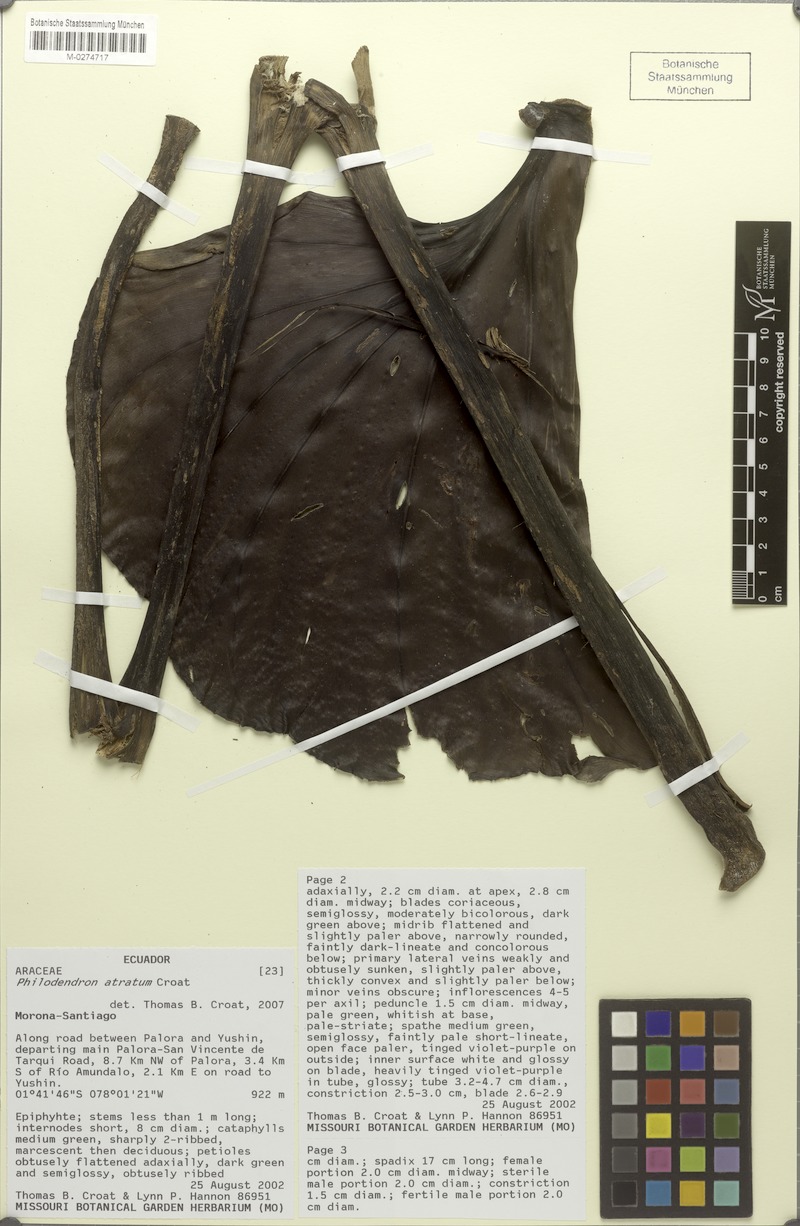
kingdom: Plantae
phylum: Tracheophyta
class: Liliopsida
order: Alismatales
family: Araceae
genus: Philodendron
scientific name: Philodendron atratum
